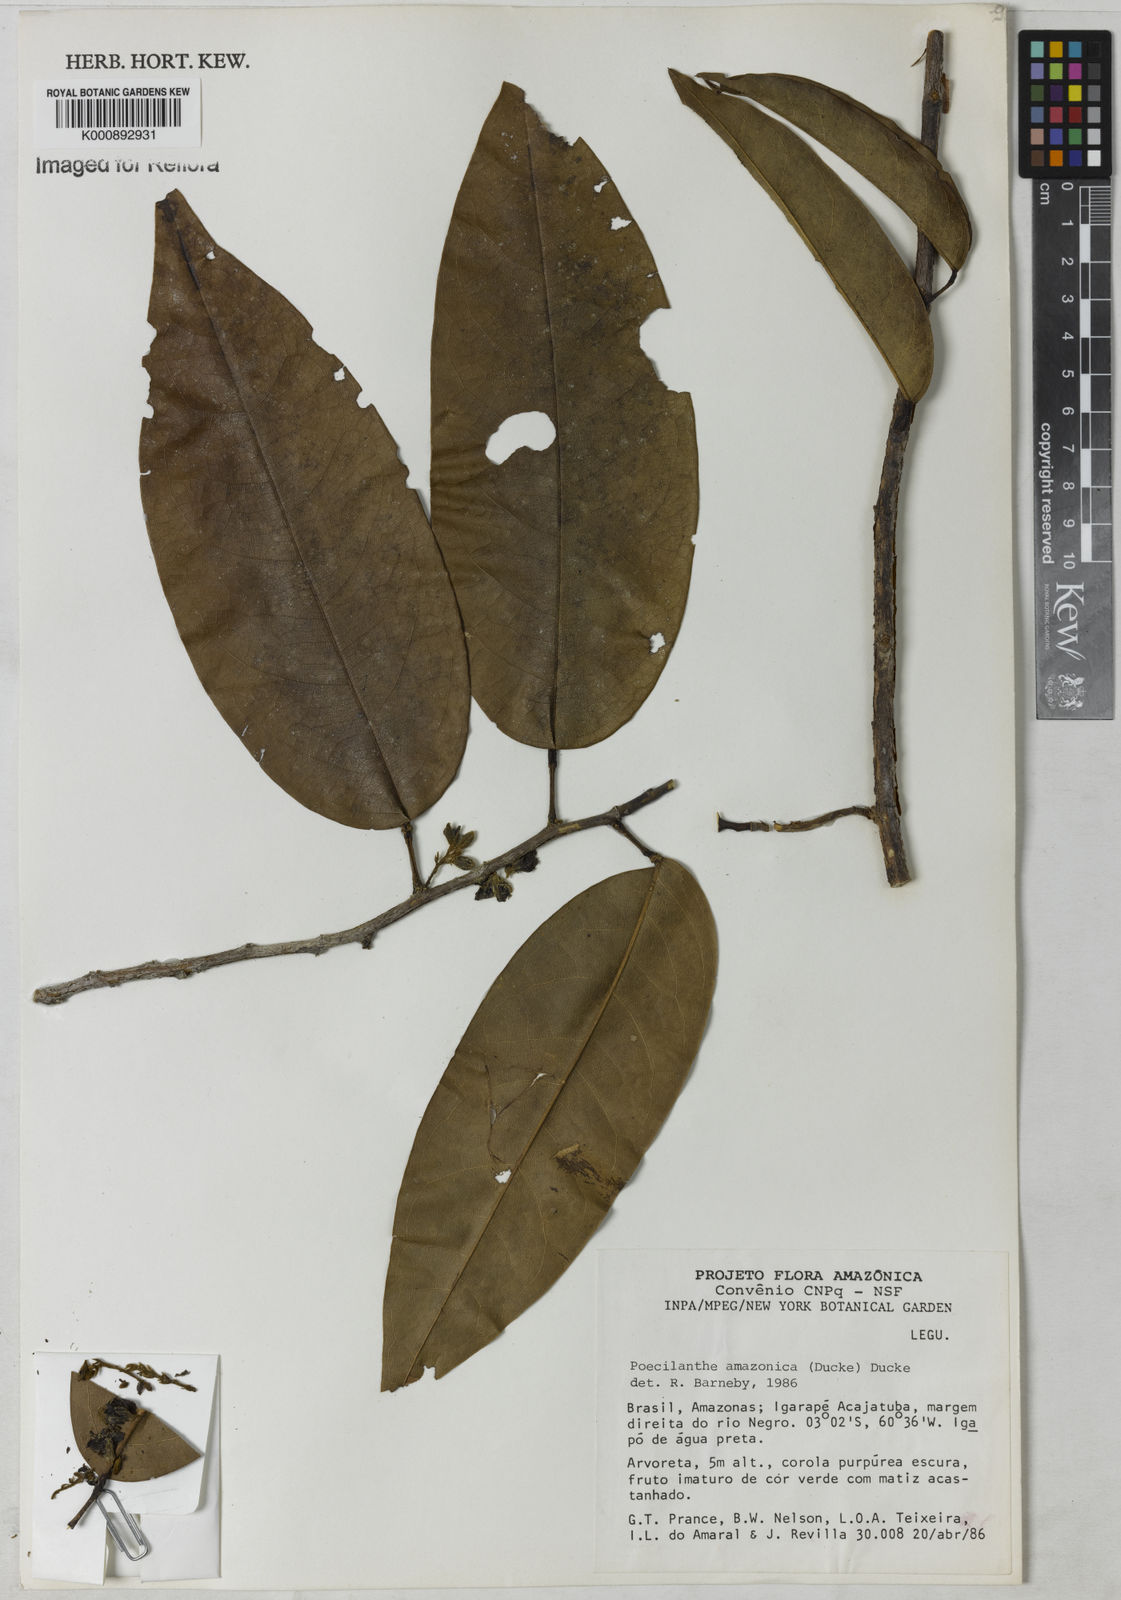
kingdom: Plantae
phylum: Tracheophyta
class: Magnoliopsida
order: Fabales
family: Fabaceae
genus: Limadendron
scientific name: Limadendron amazonicum
